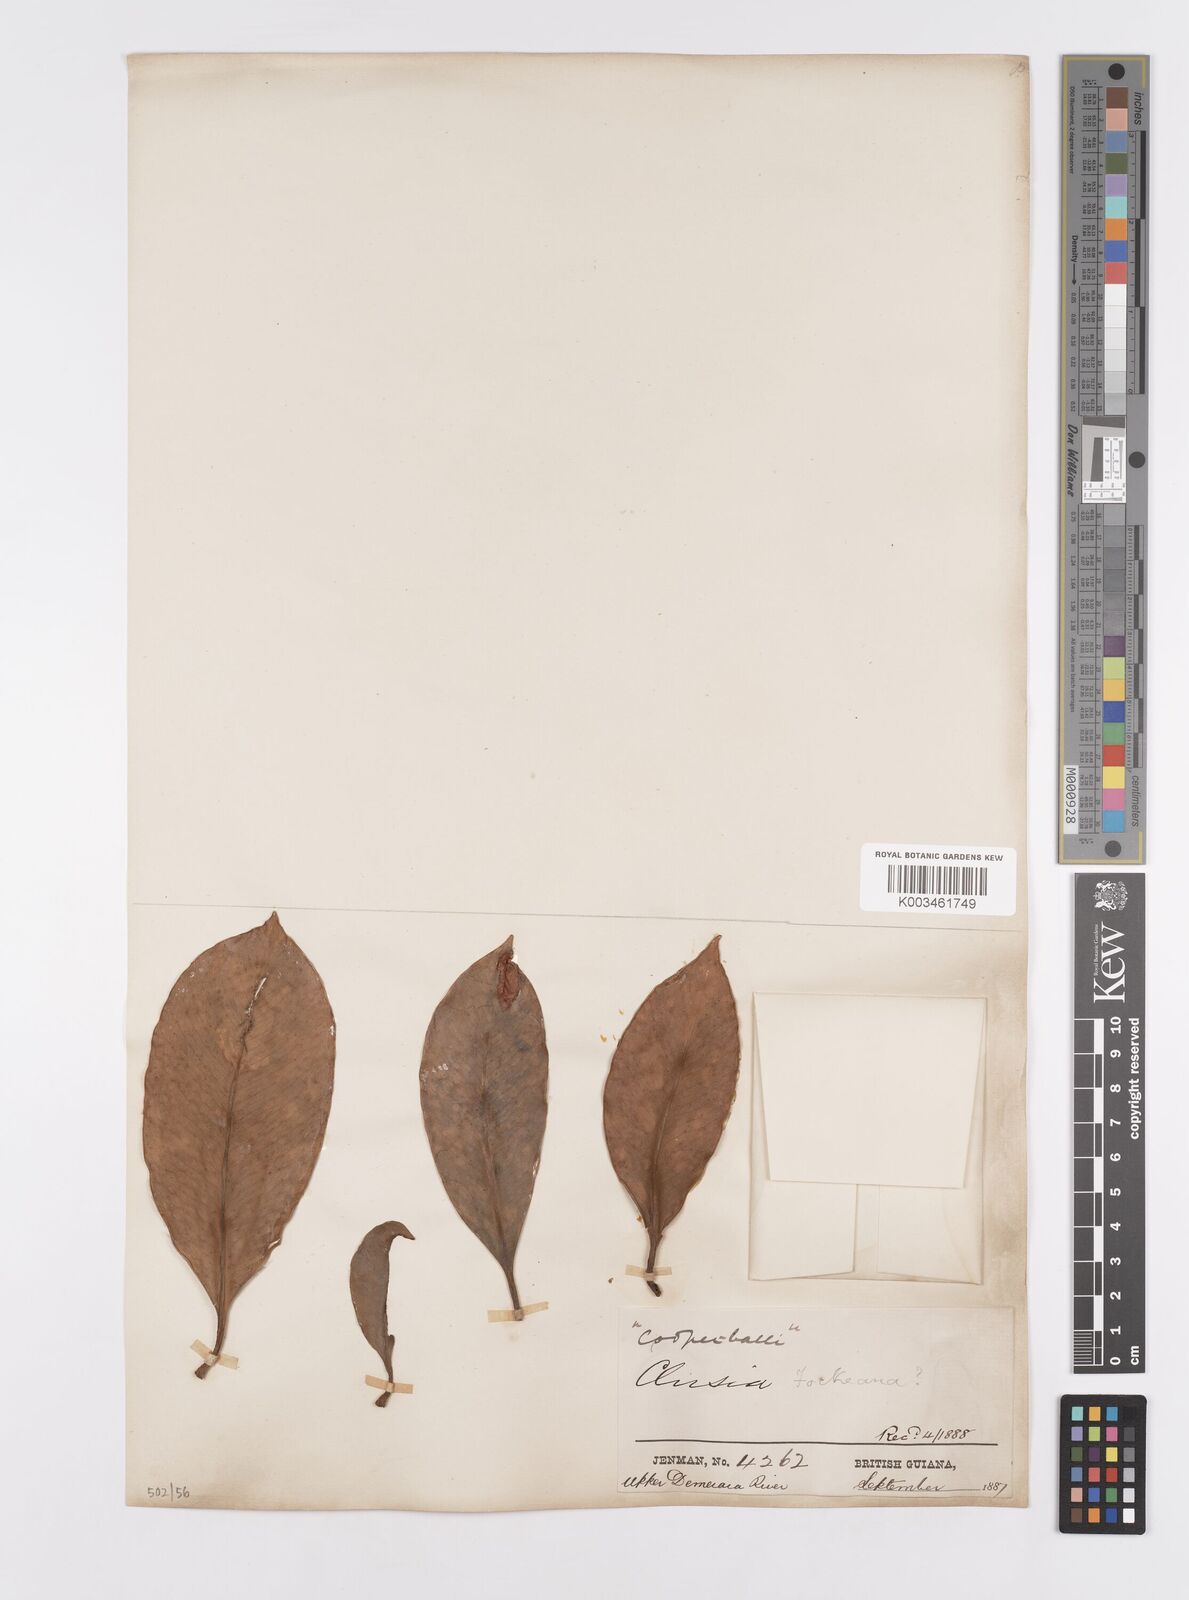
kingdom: Plantae
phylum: Tracheophyta
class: Magnoliopsida
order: Malpighiales
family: Clusiaceae
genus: Clusia
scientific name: Clusia fockeana
